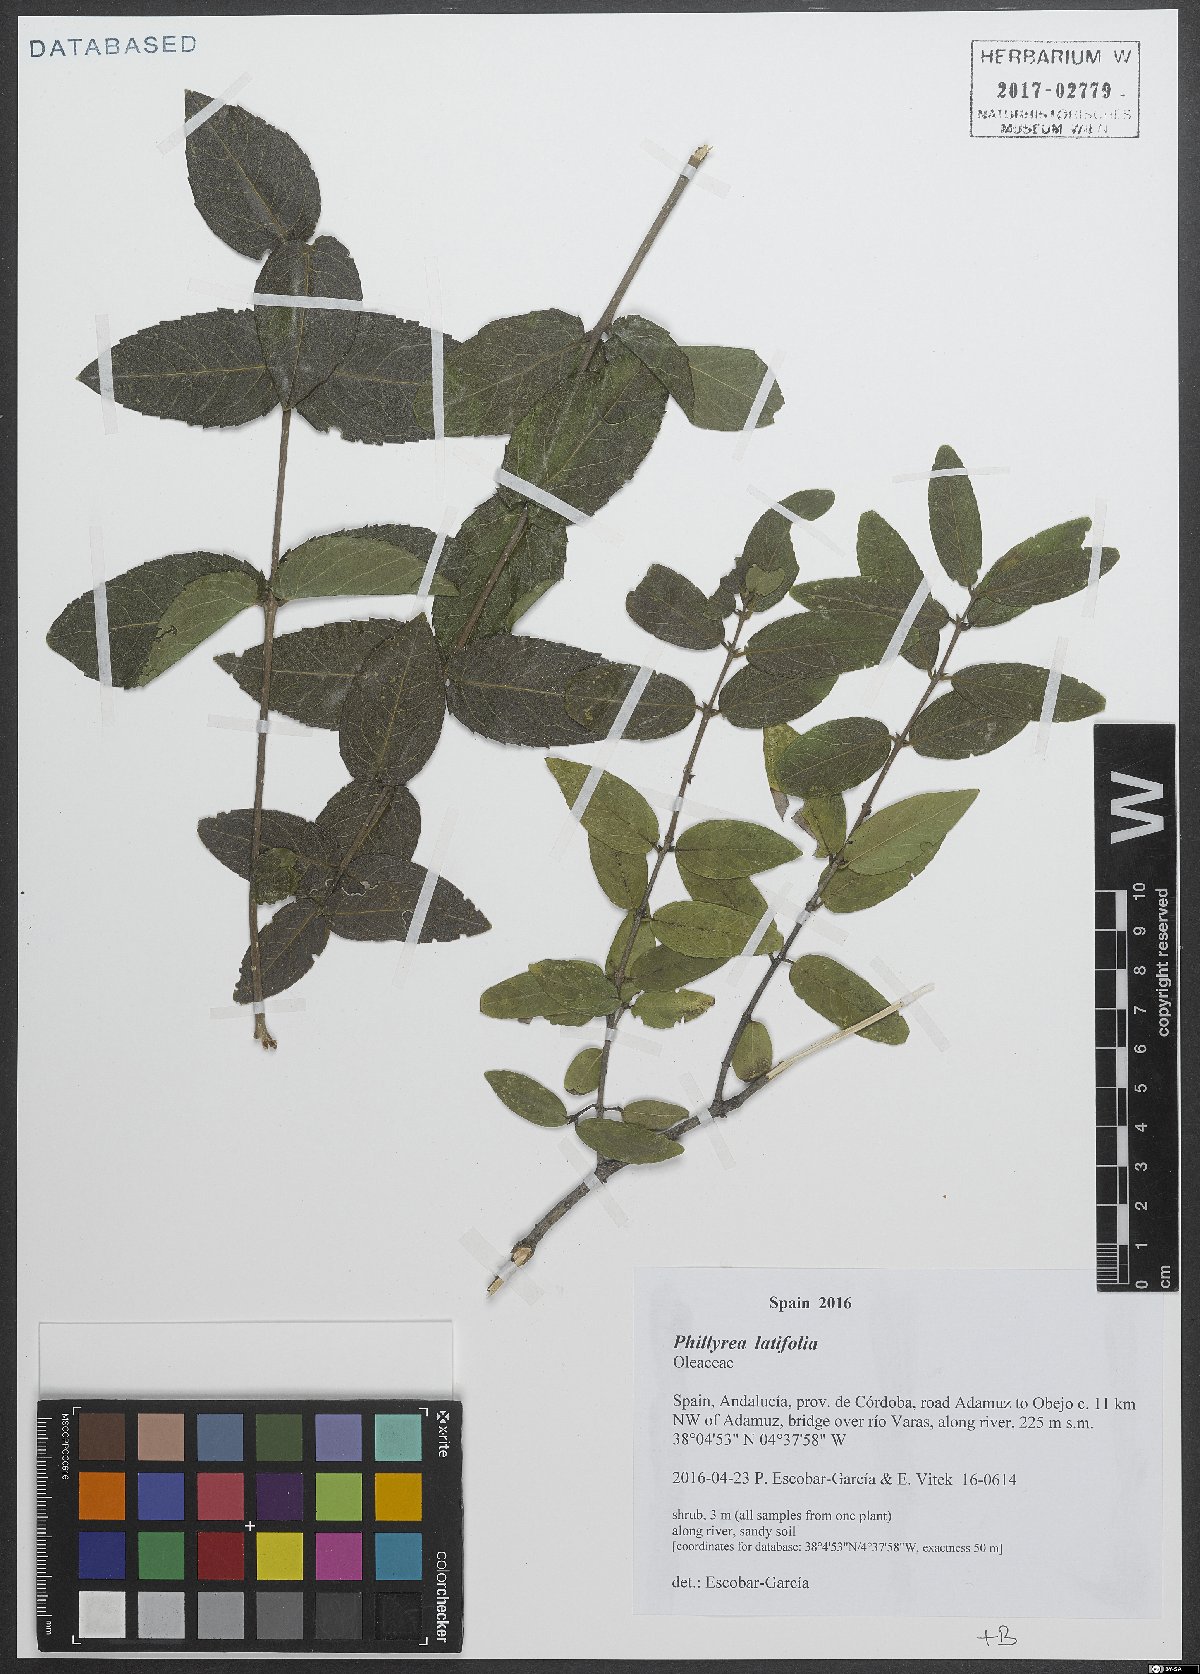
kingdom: Plantae
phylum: Tracheophyta
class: Magnoliopsida
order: Lamiales
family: Oleaceae
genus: Phillyrea
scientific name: Phillyrea latifolia
